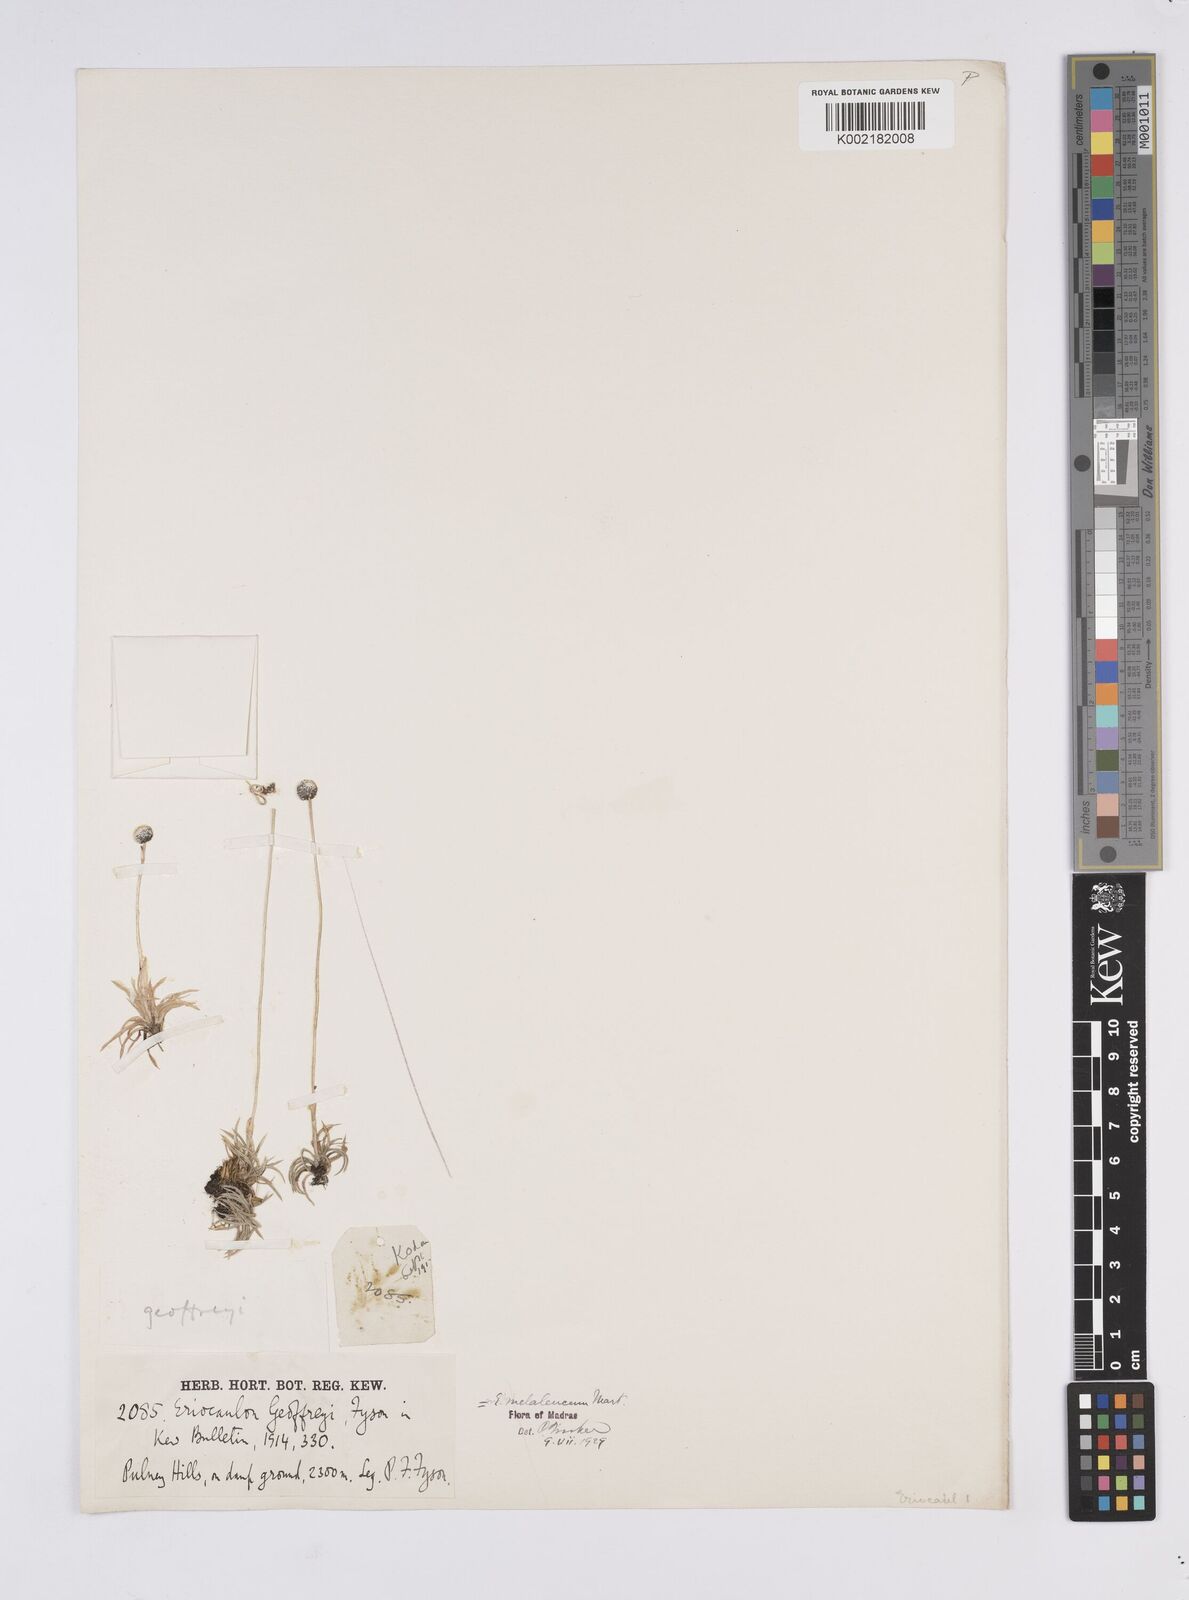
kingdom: Plantae
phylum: Tracheophyta
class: Liliopsida
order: Poales
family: Eriocaulaceae
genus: Eriocaulon
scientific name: Eriocaulon leucomelas
